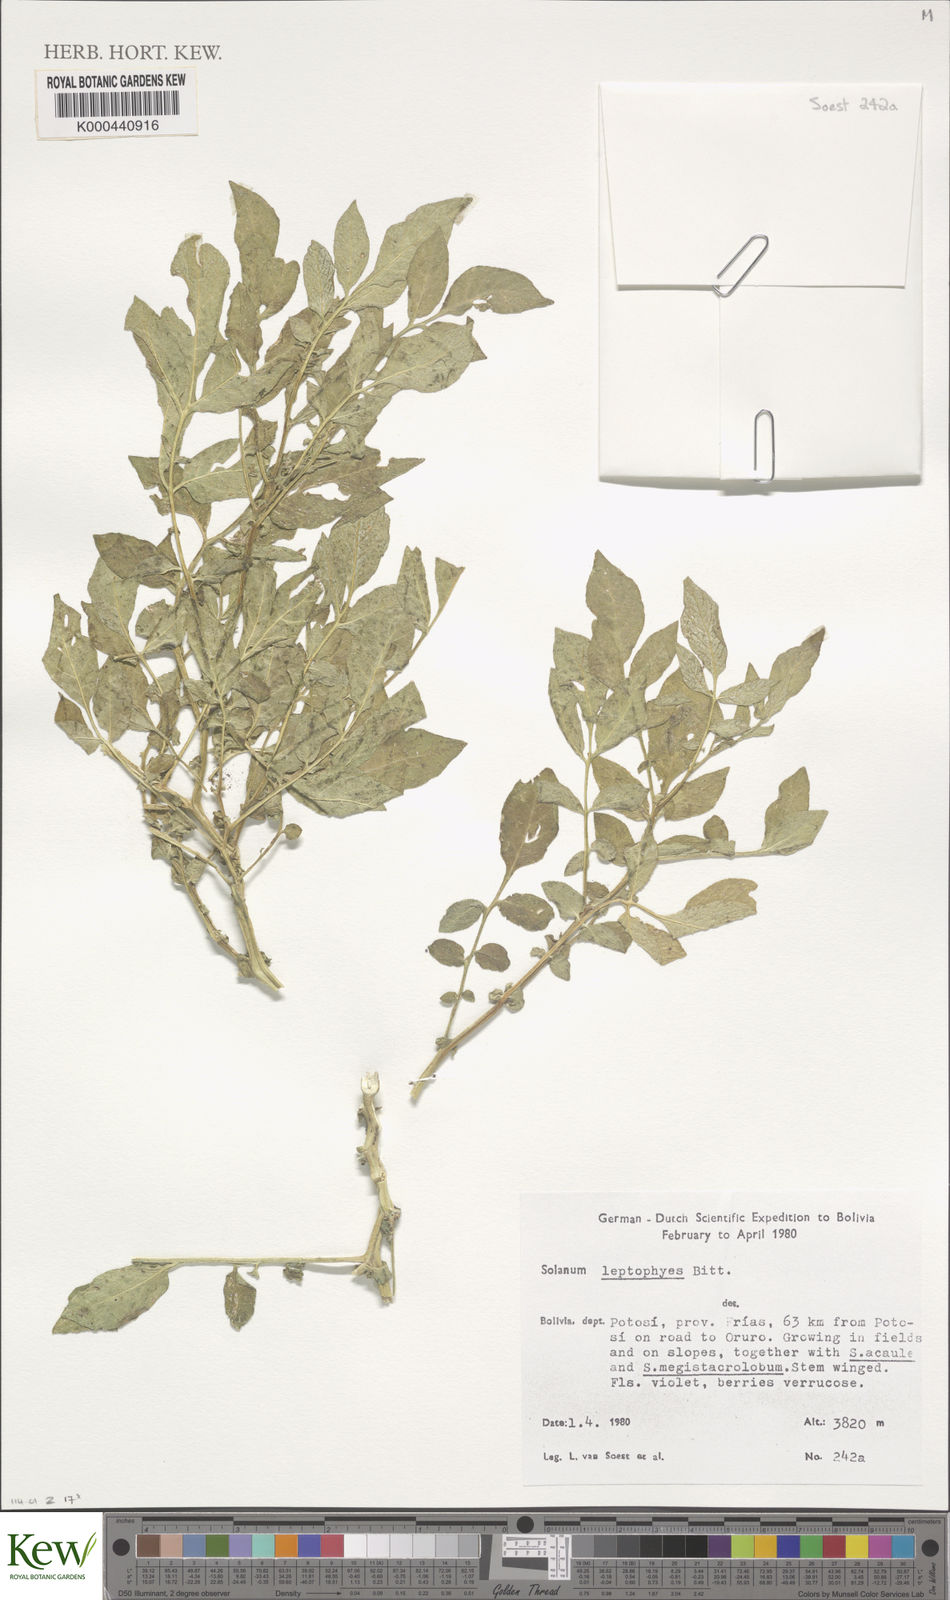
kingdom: Plantae
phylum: Tracheophyta
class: Magnoliopsida
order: Solanales
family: Solanaceae
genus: Solanum
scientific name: Solanum brevicaule
